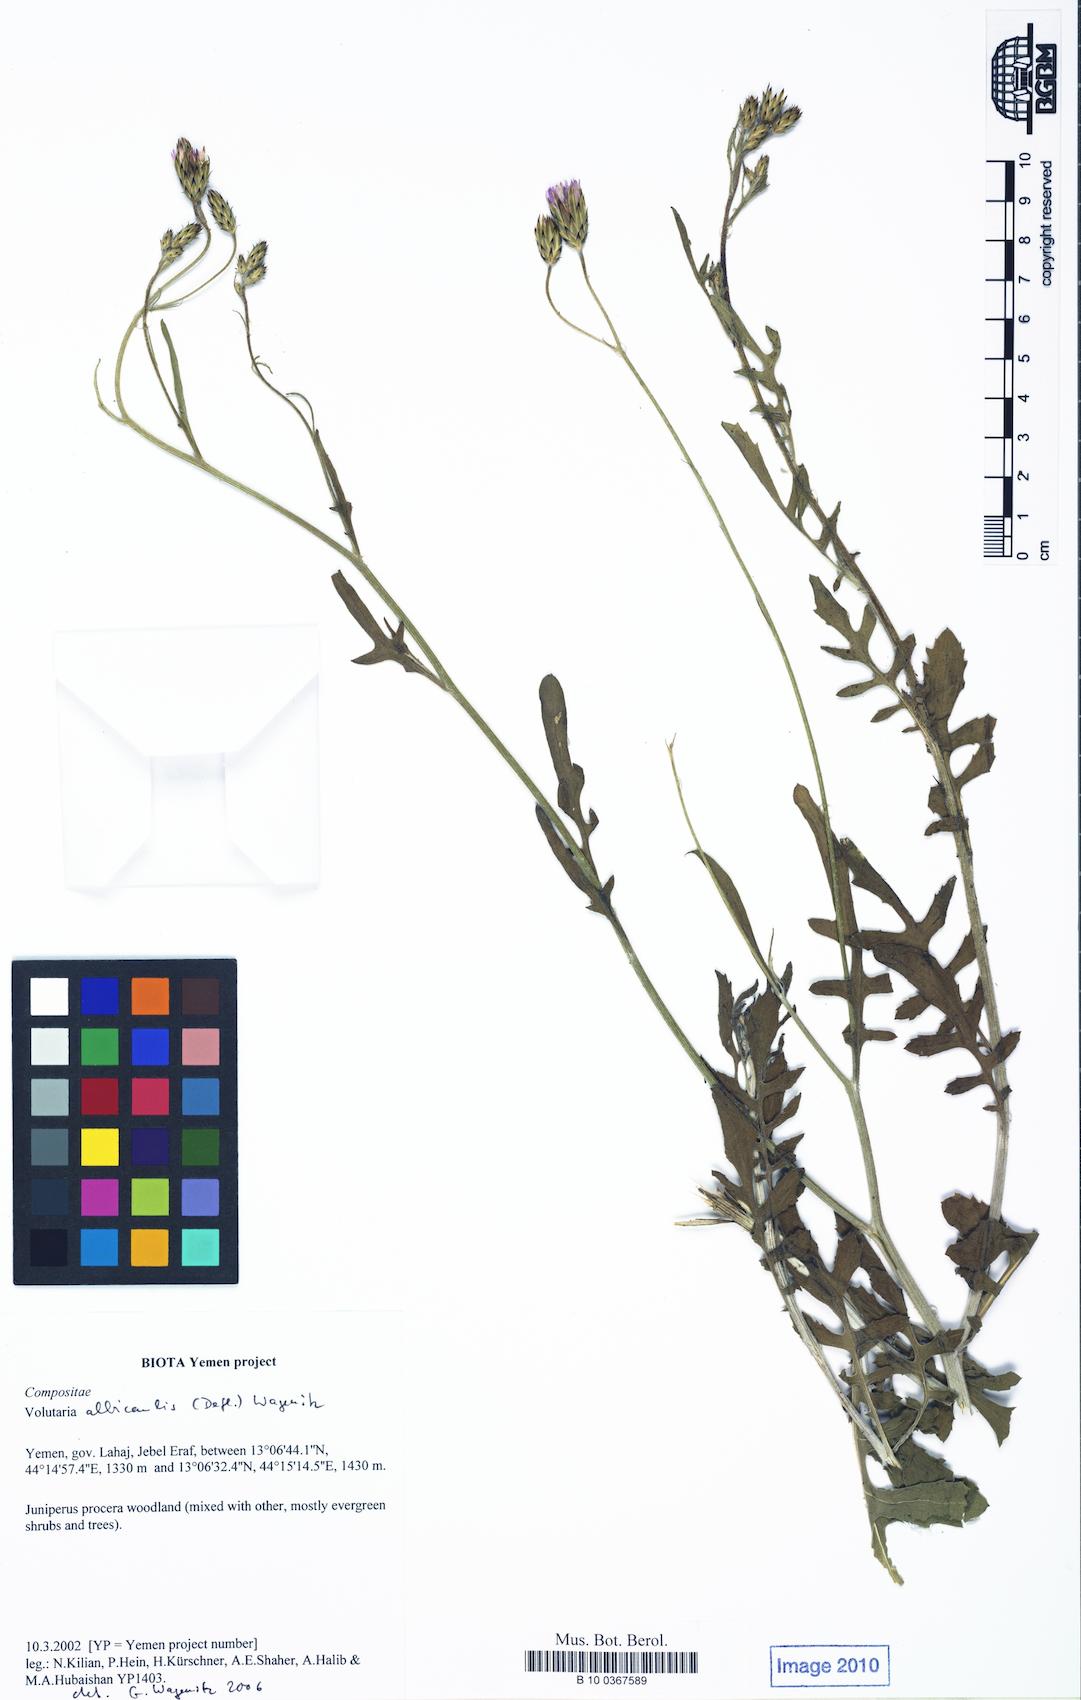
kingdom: Plantae
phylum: Tracheophyta
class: Magnoliopsida
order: Asterales
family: Asteraceae
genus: Volutaria
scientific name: Volutaria albicaulis
